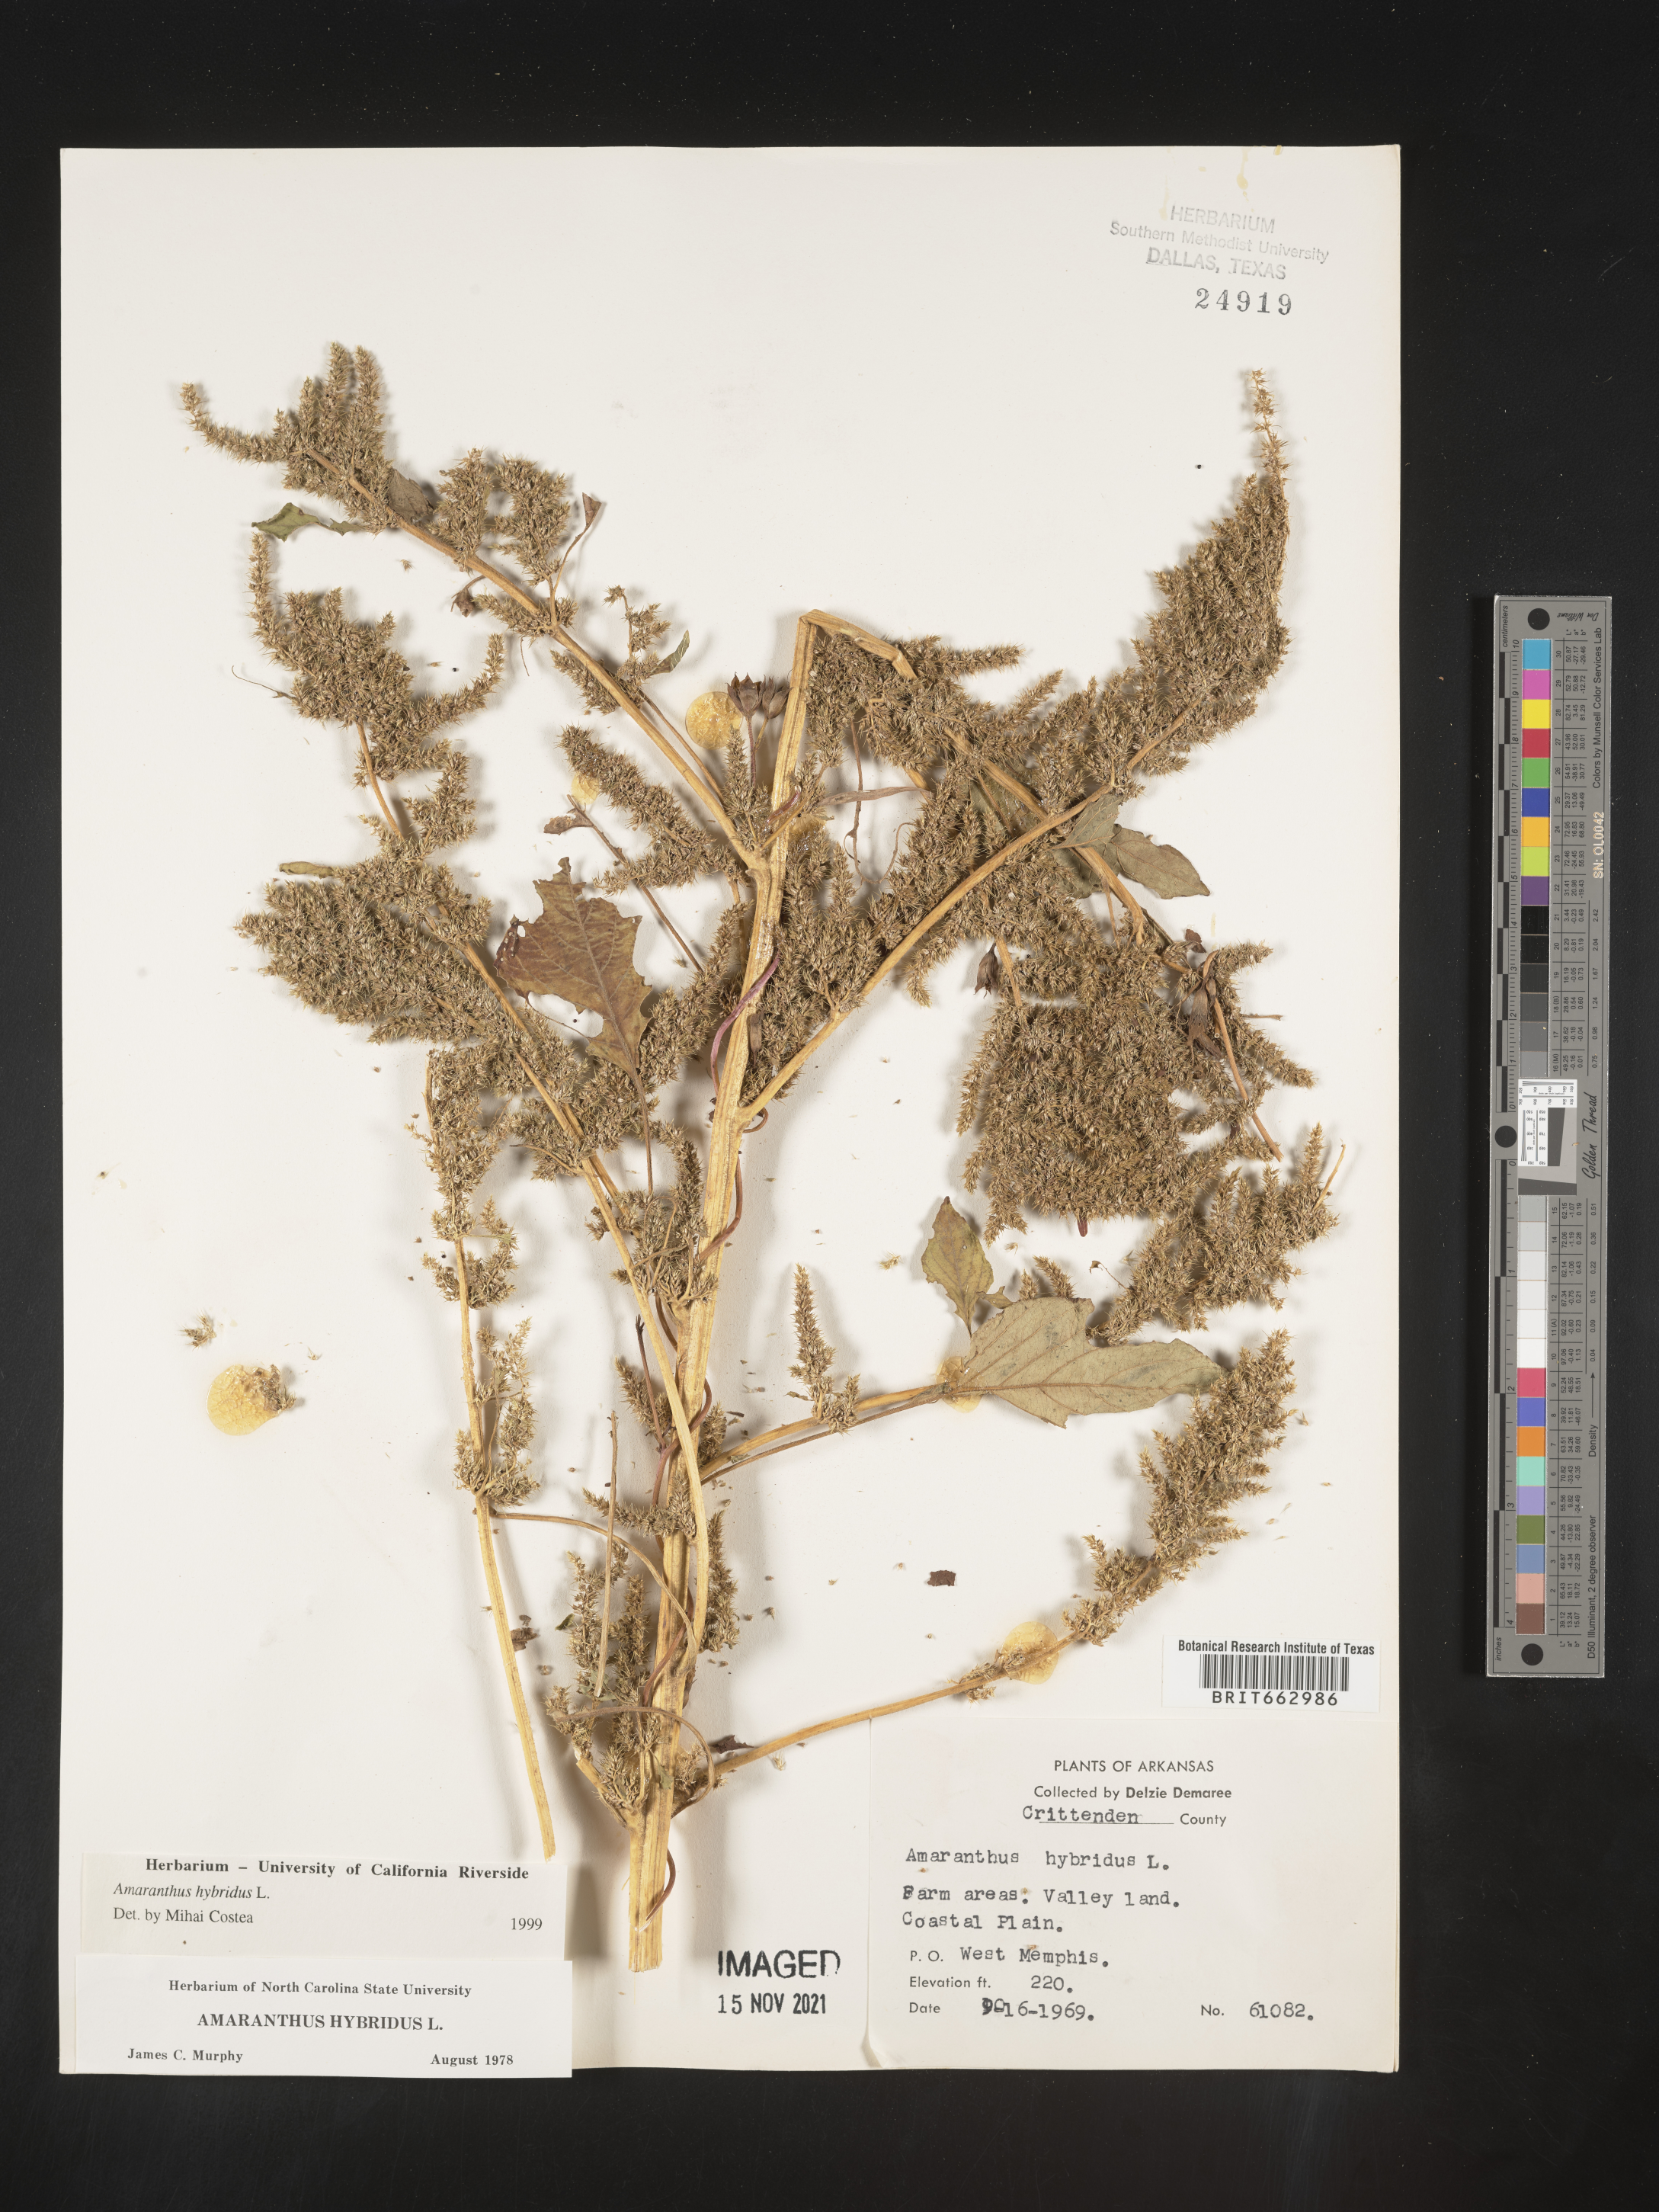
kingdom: Plantae
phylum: Tracheophyta
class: Magnoliopsida
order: Caryophyllales
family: Amaranthaceae
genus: Amaranthus
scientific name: Amaranthus hybridus
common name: Green amaranth
